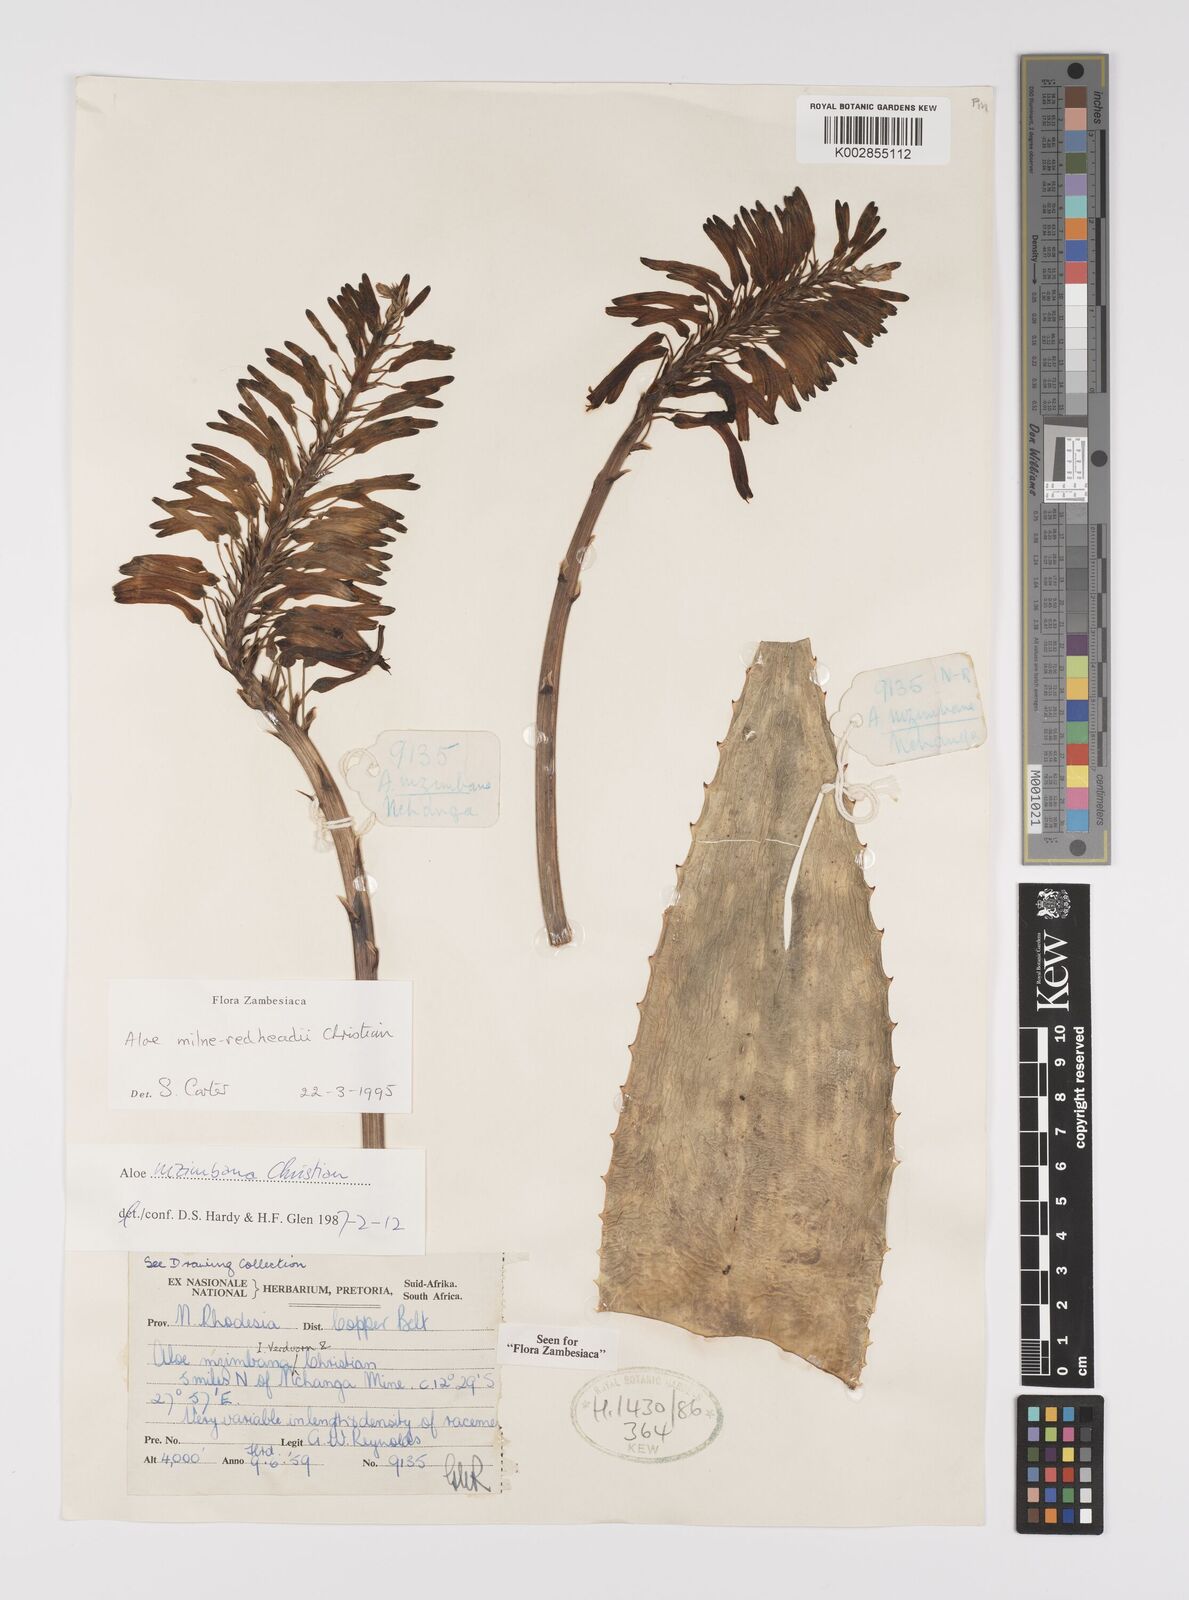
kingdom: Plantae
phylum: Tracheophyta
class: Liliopsida
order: Asparagales
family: Asphodelaceae
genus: Aloe
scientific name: Aloe milne-redheadii
